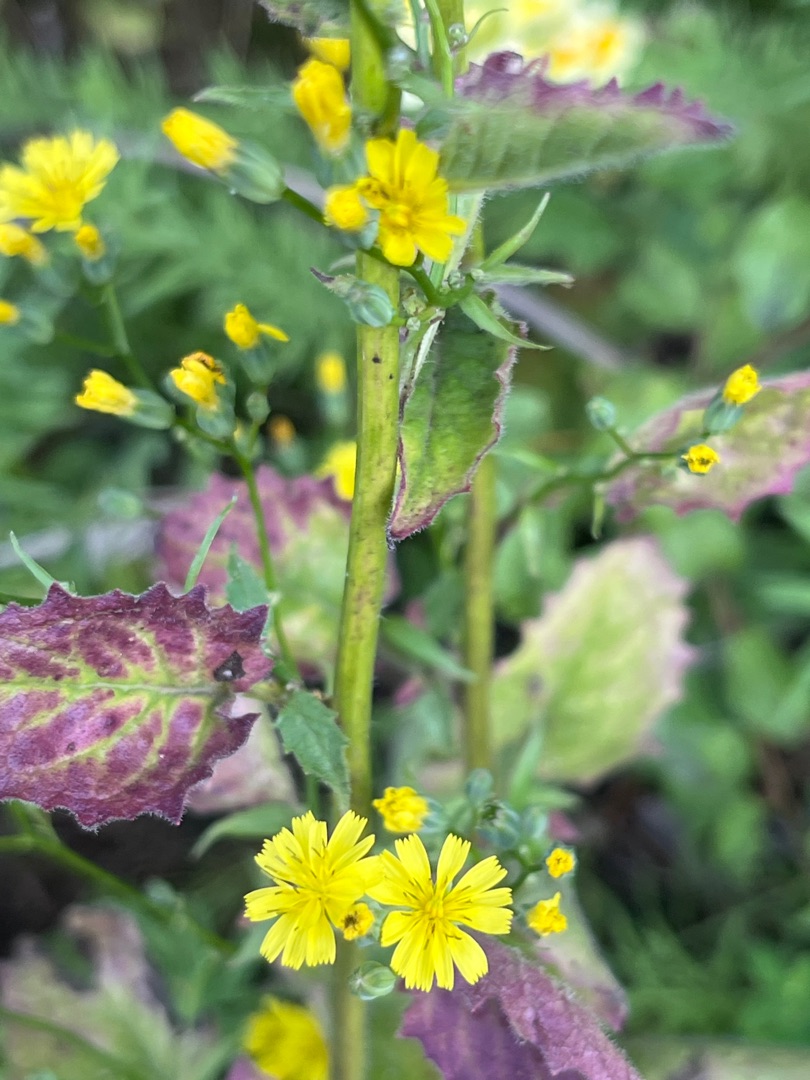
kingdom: Plantae
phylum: Tracheophyta
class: Magnoliopsida
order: Asterales
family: Asteraceae
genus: Lapsana
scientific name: Lapsana communis
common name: Haremad
